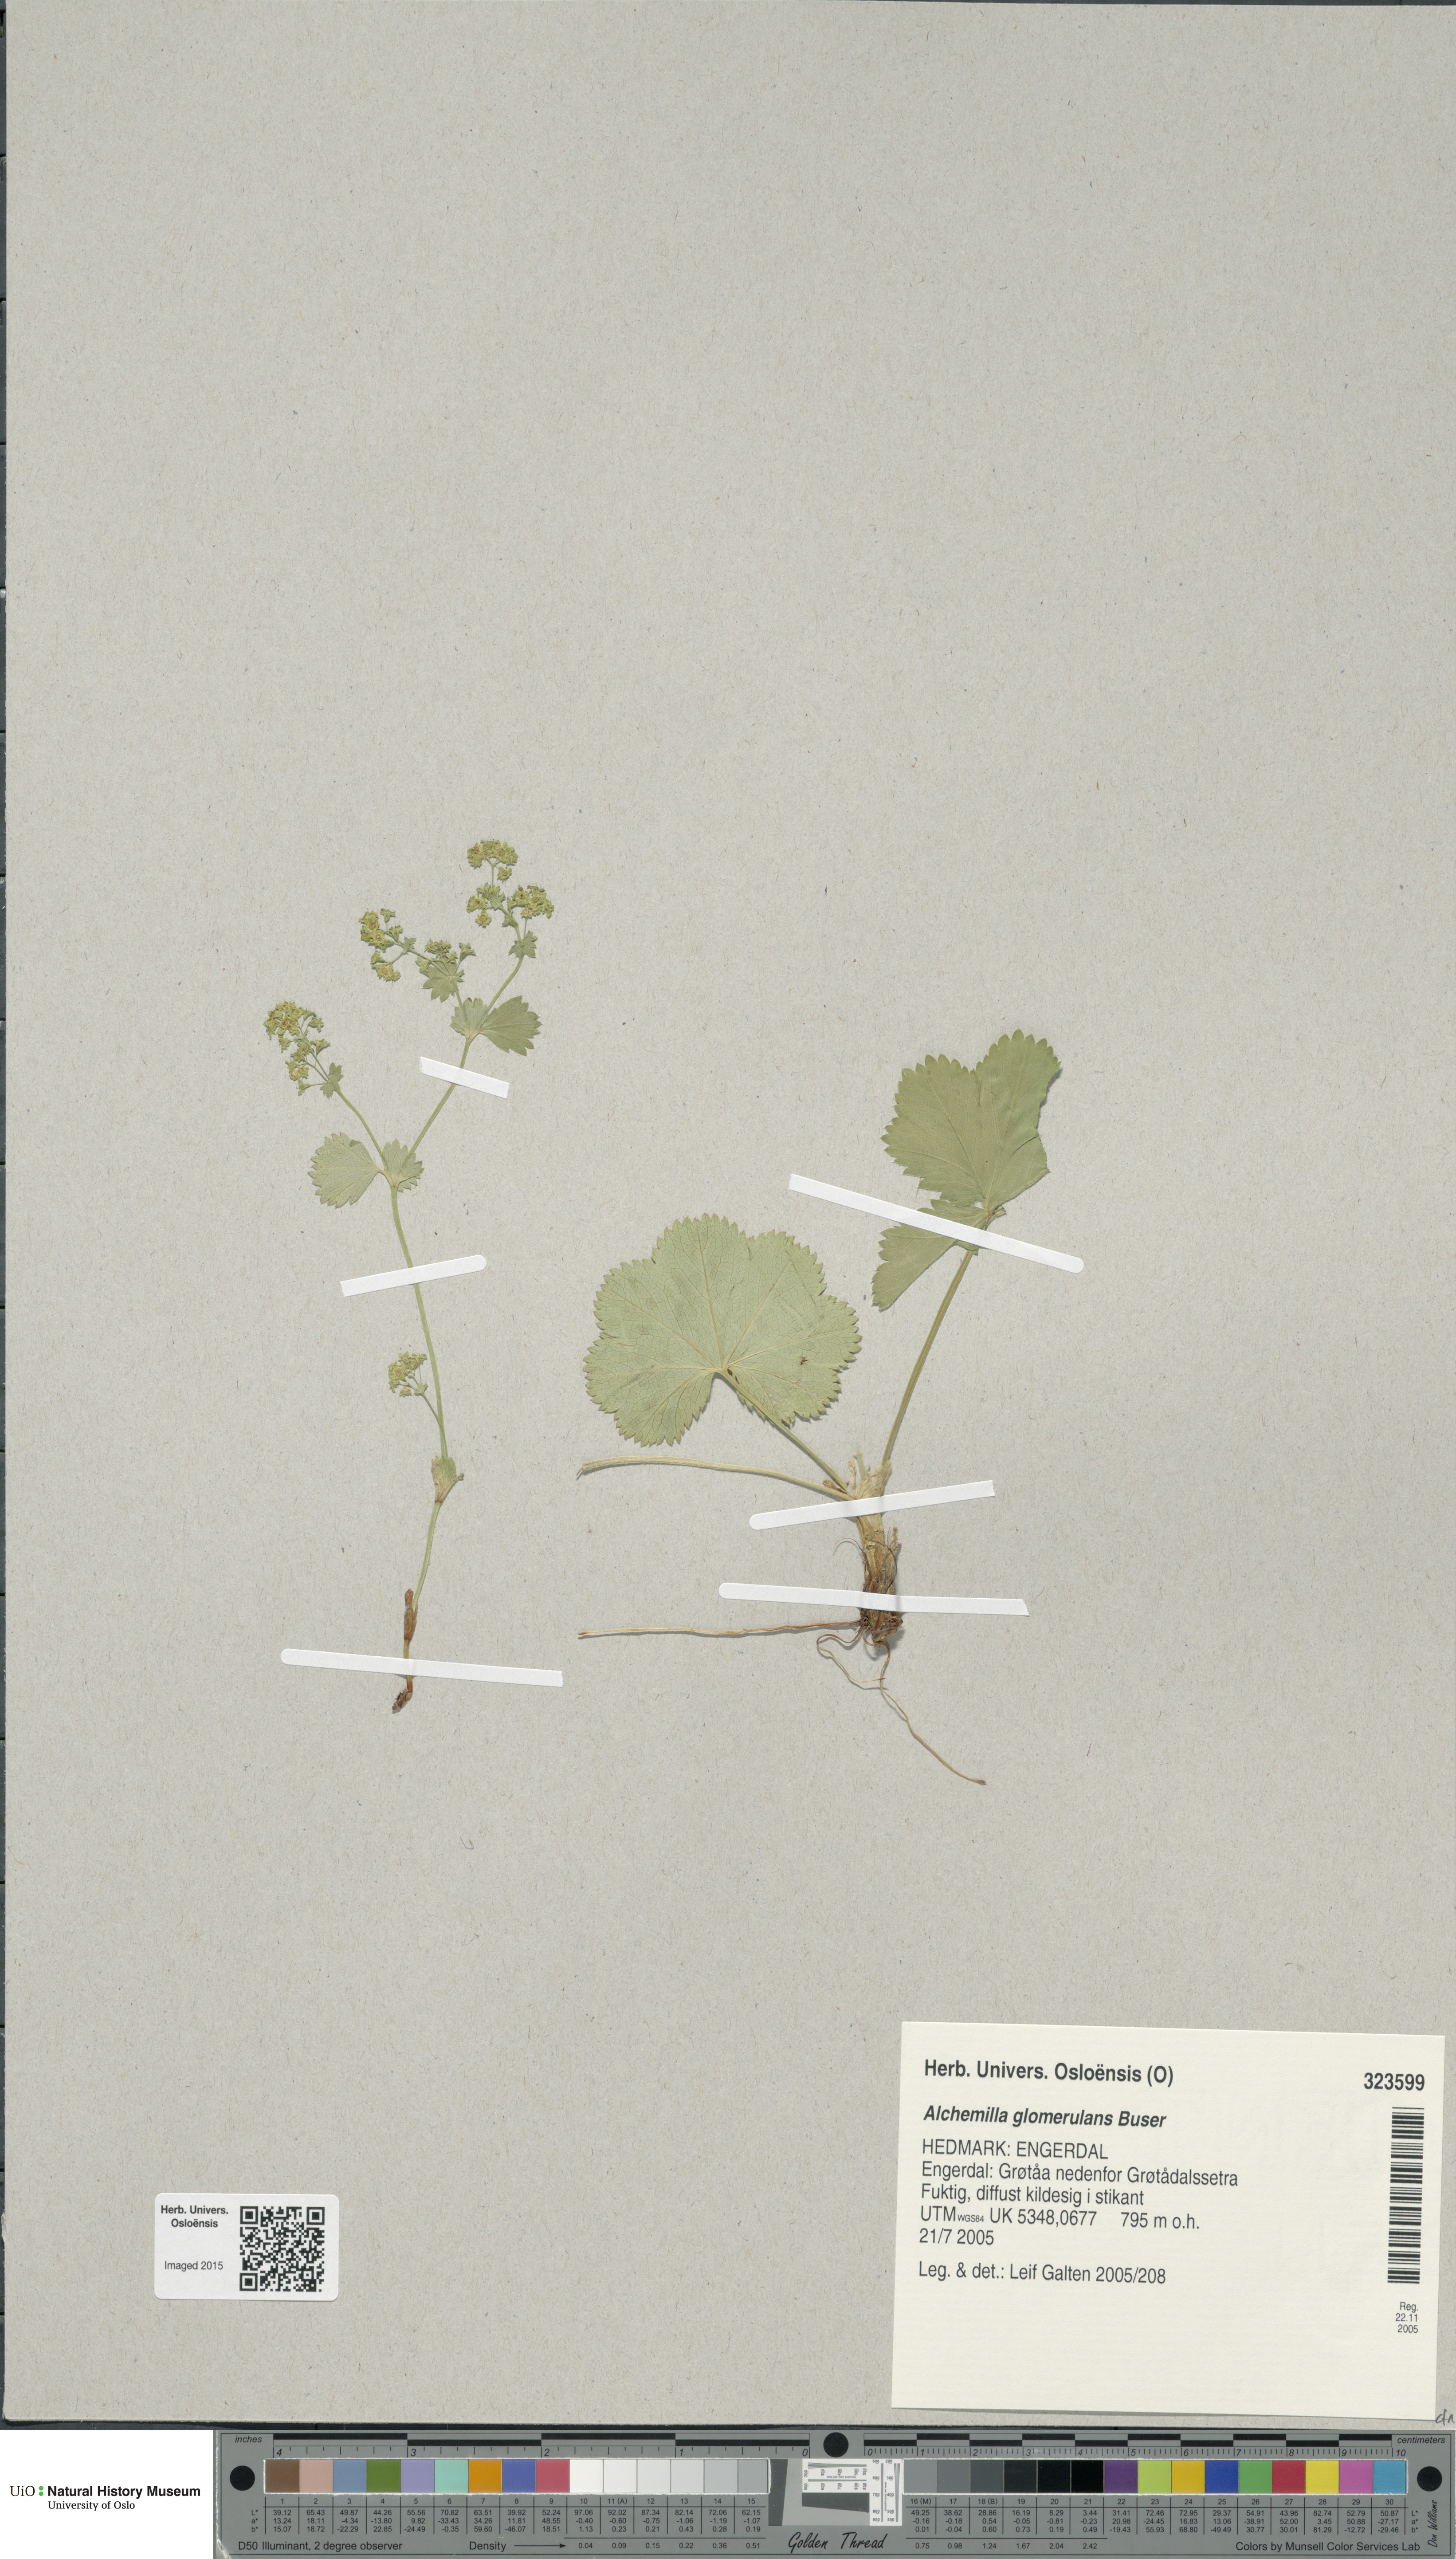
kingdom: Plantae
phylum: Tracheophyta
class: Magnoliopsida
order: Rosales
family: Rosaceae
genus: Alchemilla
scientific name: Alchemilla glomerulans
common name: Clustered lady's mantle
